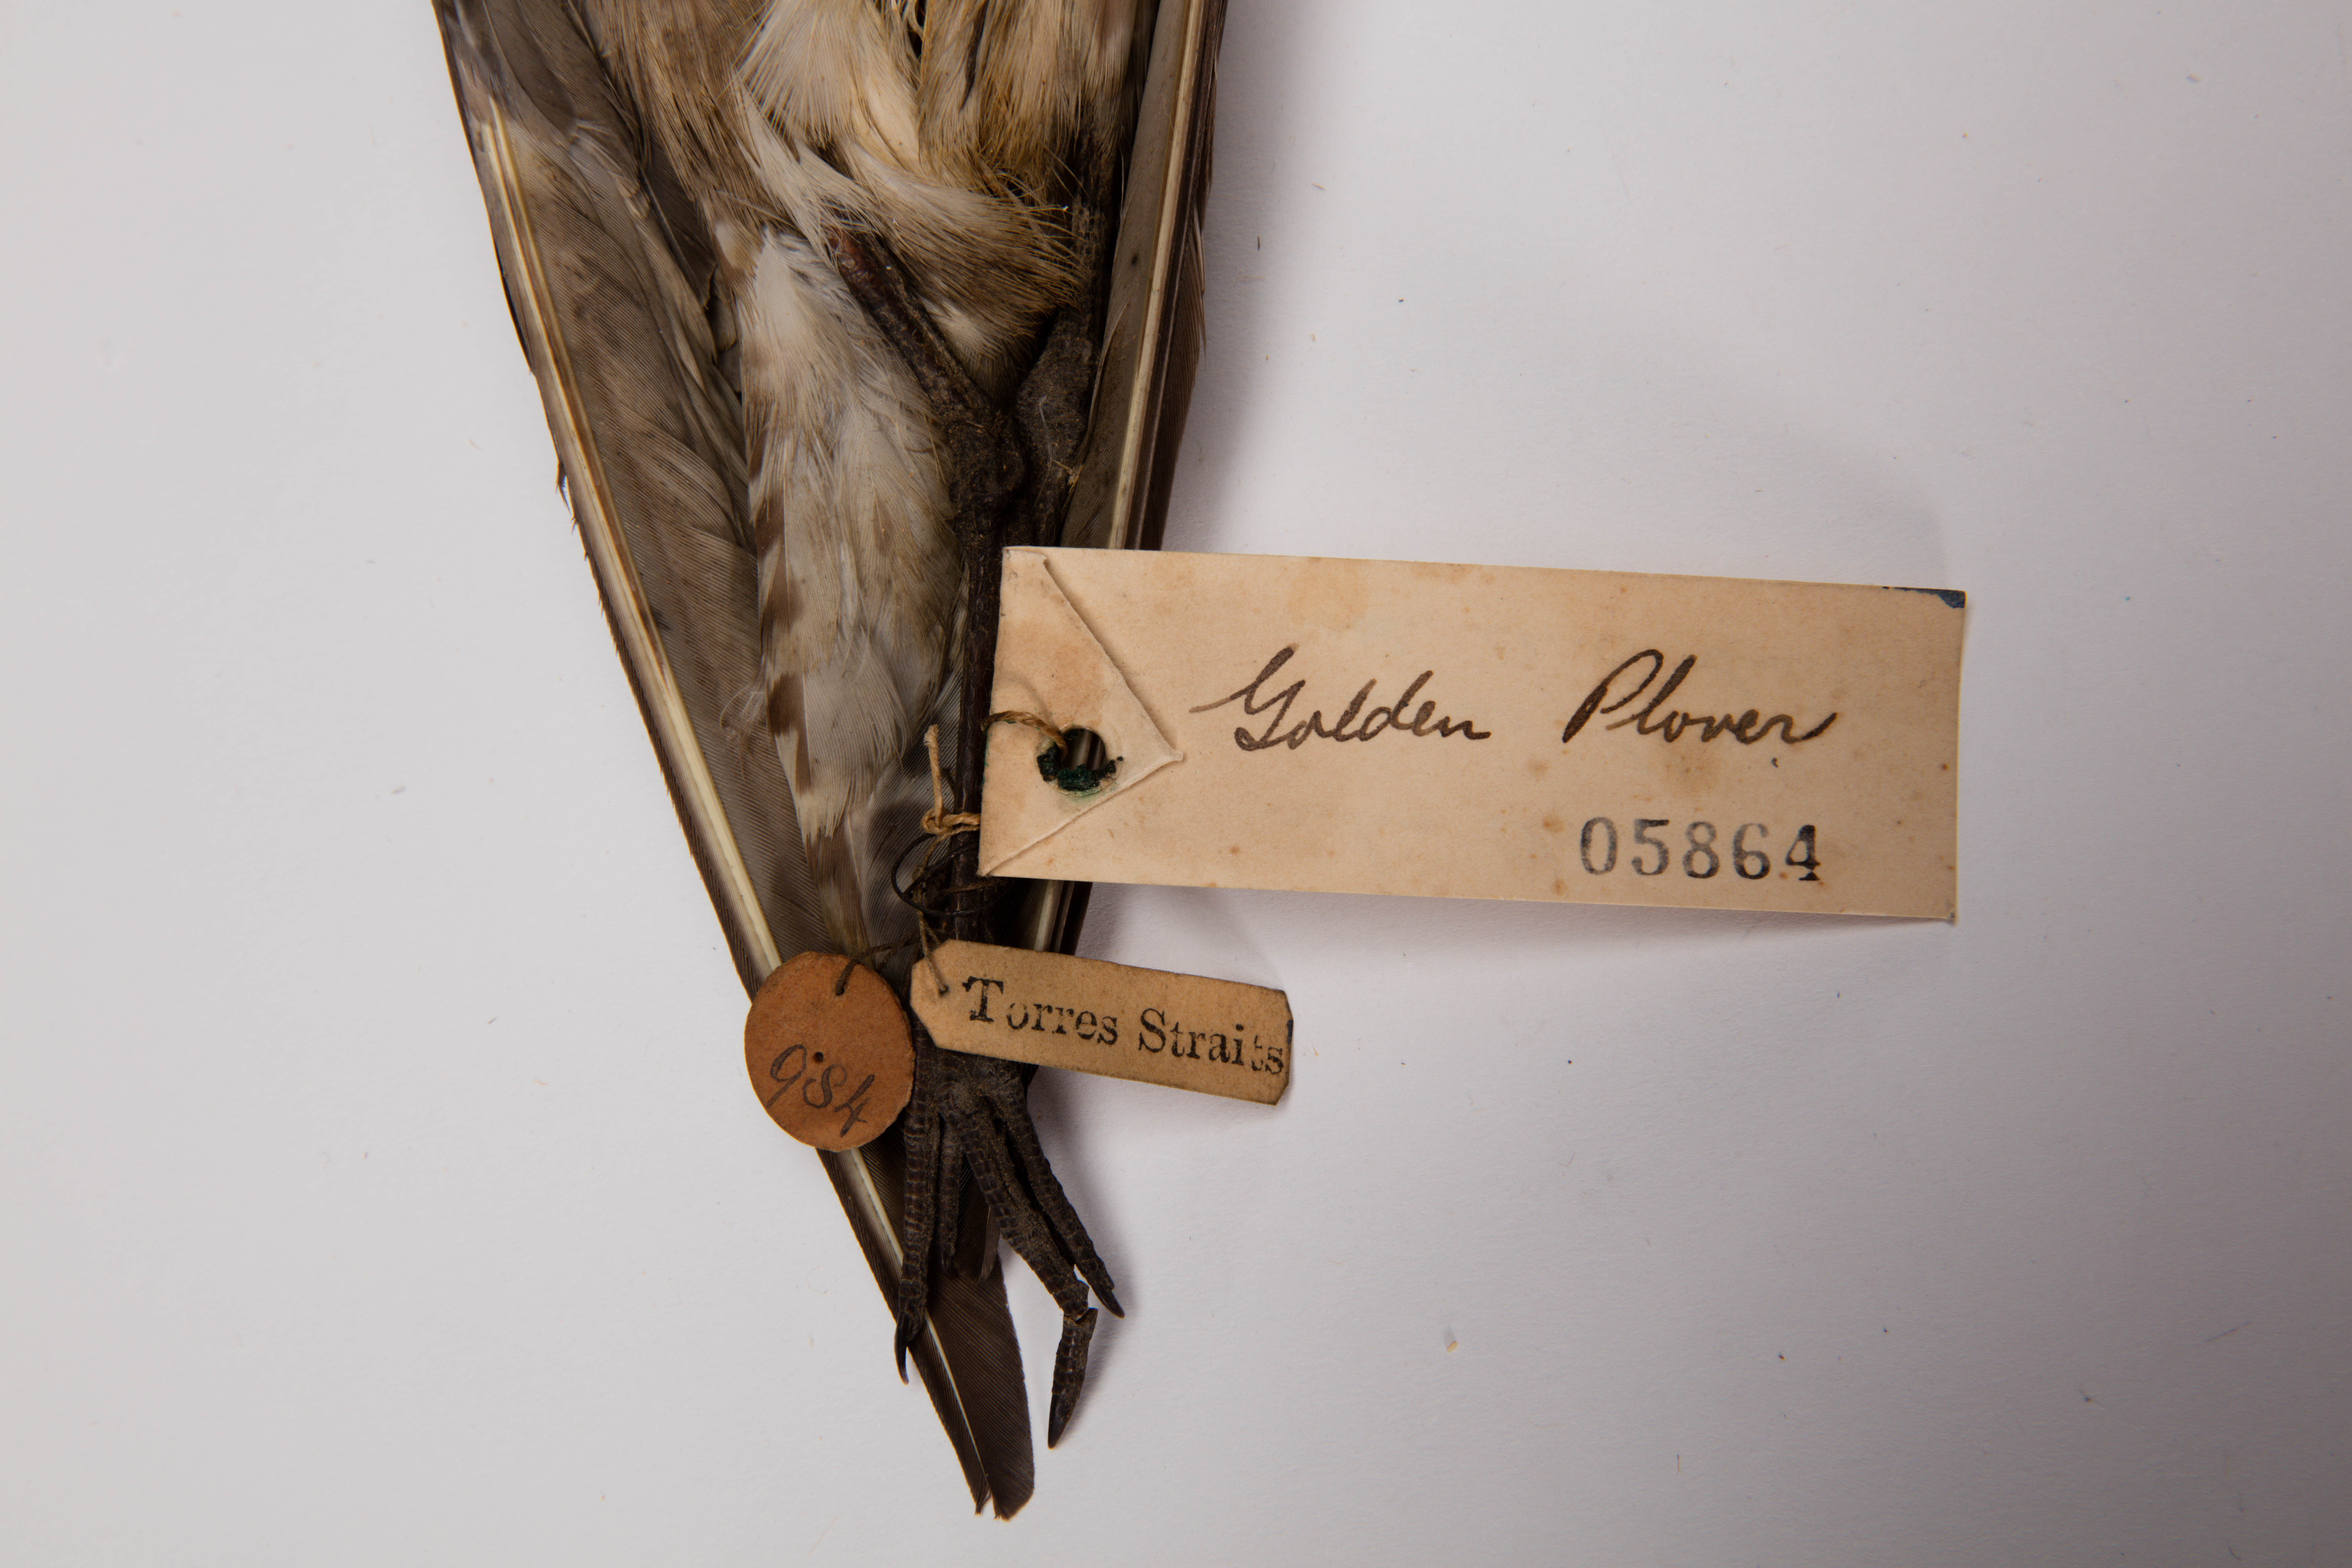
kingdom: Animalia
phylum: Chordata
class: Aves
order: Charadriiformes
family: Charadriidae
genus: Pluvialis
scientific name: Pluvialis fulva
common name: Pacific golden plover
